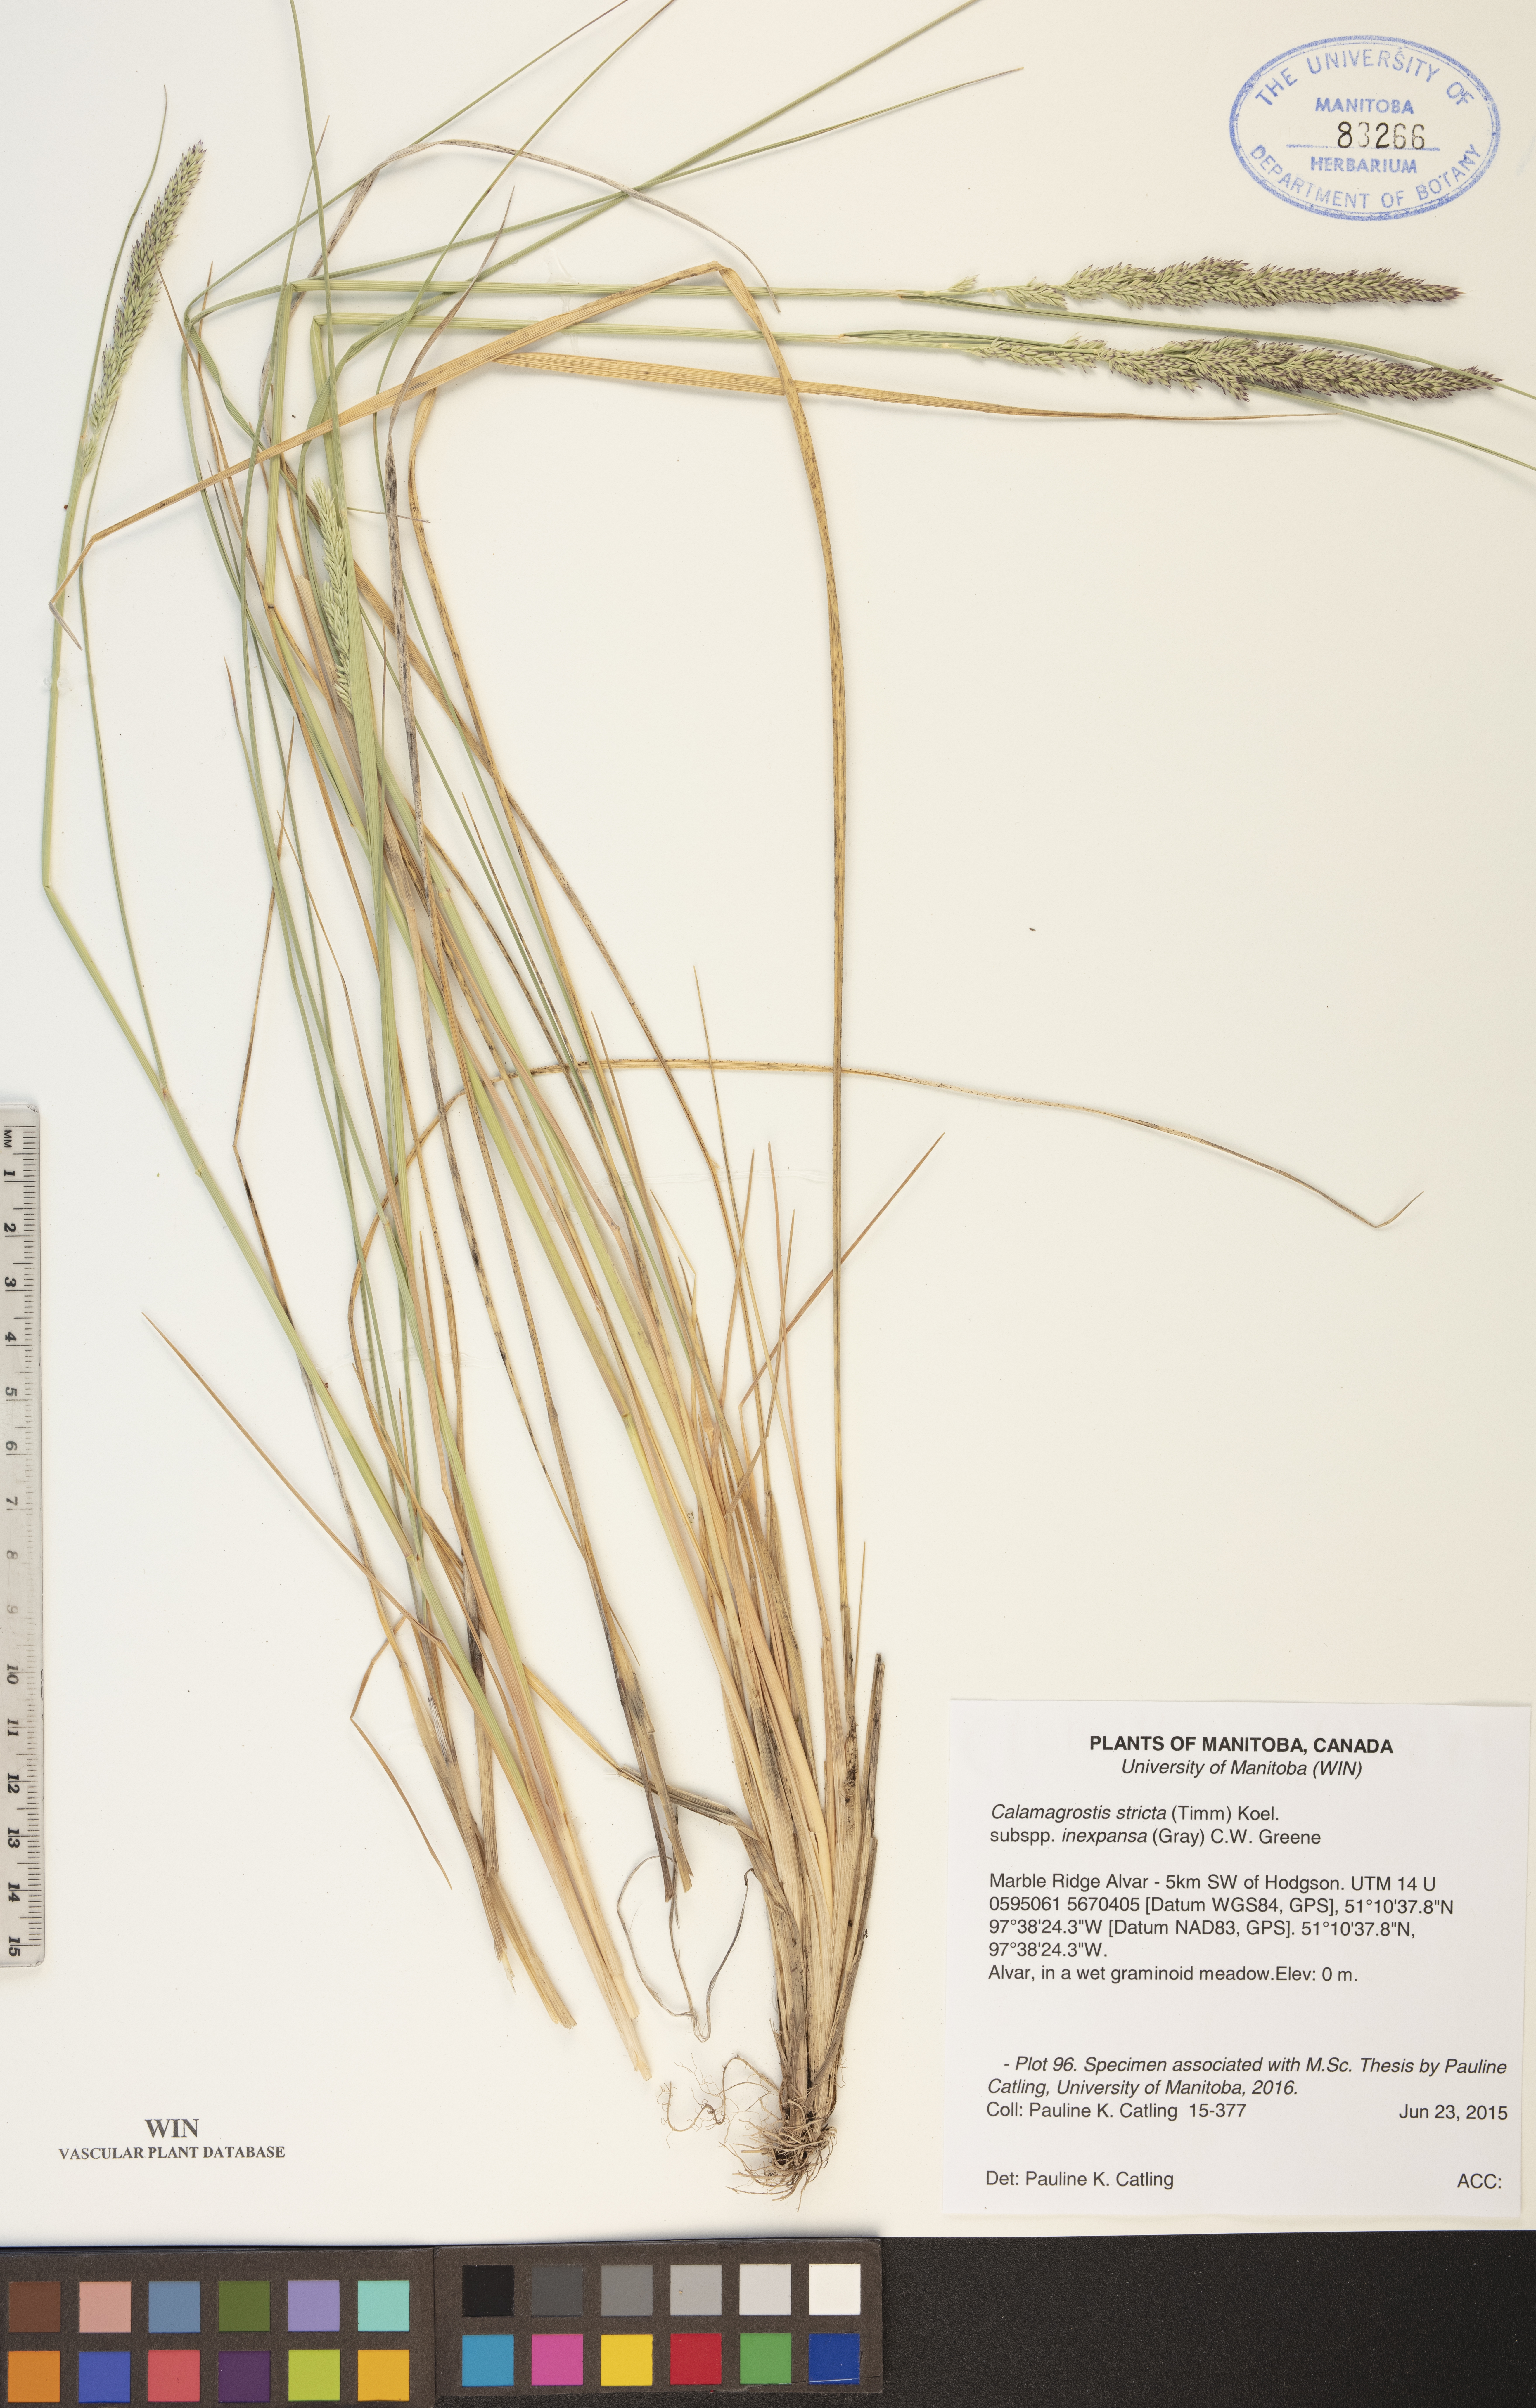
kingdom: Plantae
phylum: Tracheophyta
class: Liliopsida
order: Poales
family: Poaceae
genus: Calamagrostis
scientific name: Calamagrostis inexpansa
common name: Northern reedgrass
